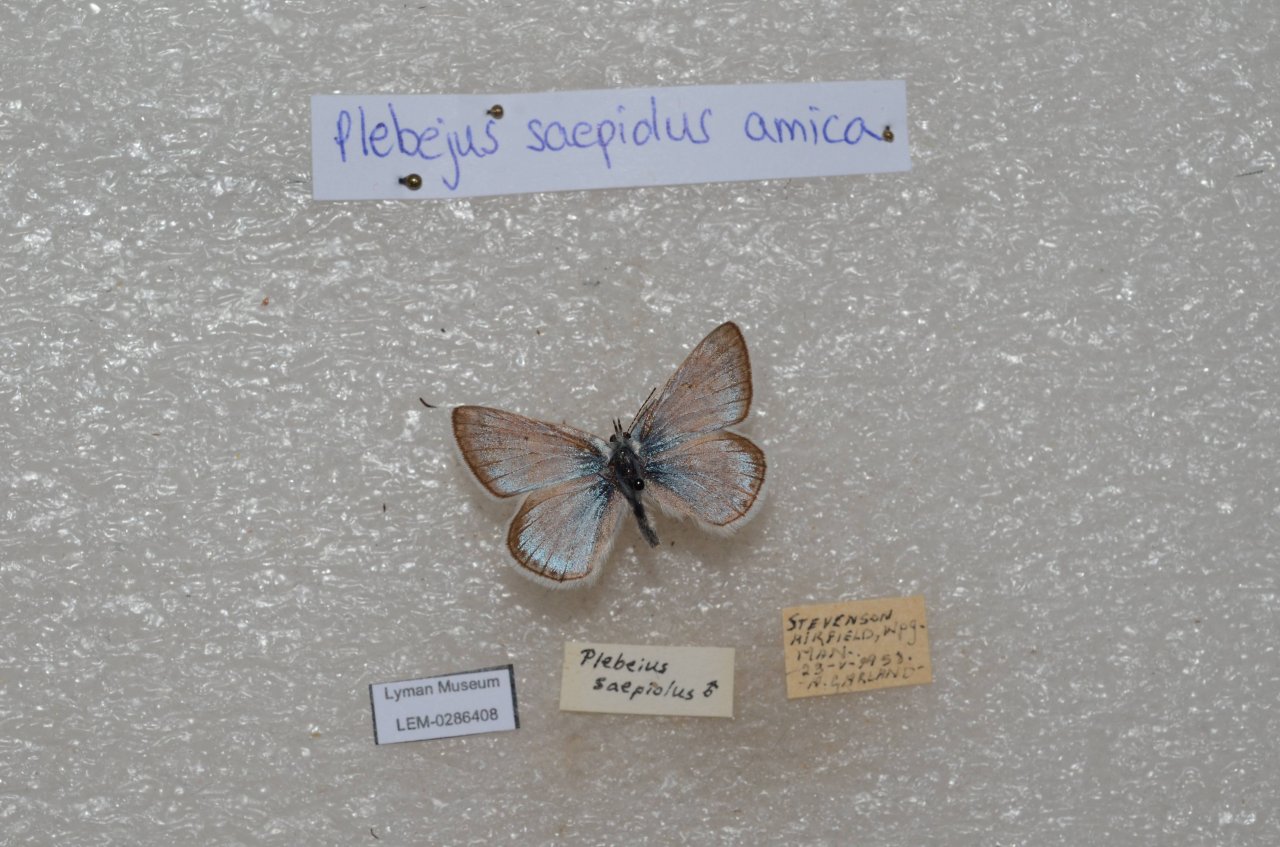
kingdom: Animalia
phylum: Arthropoda
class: Insecta
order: Lepidoptera
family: Lycaenidae
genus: Plebejus
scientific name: Plebejus saepiolus
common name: Greenish Blue
